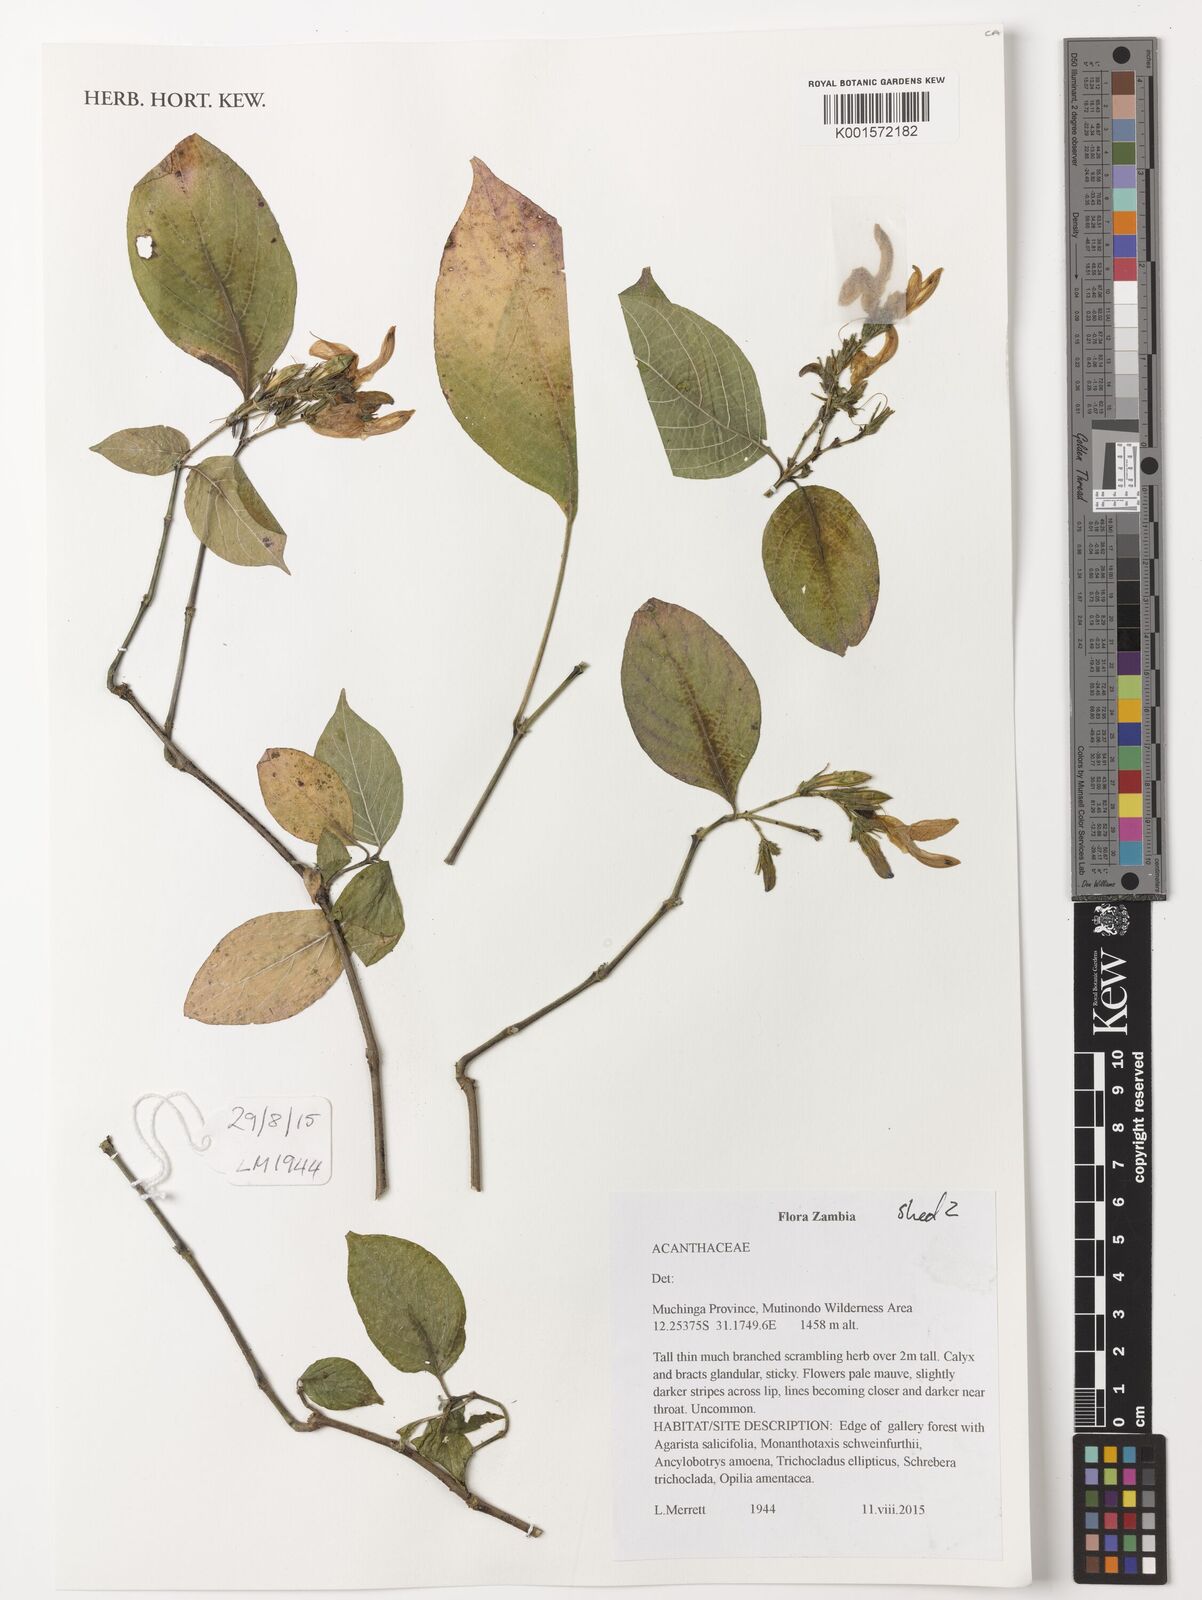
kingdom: Plantae
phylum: Tracheophyta
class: Magnoliopsida
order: Lamiales
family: Acanthaceae
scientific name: Acanthaceae
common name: Acanthaceae
